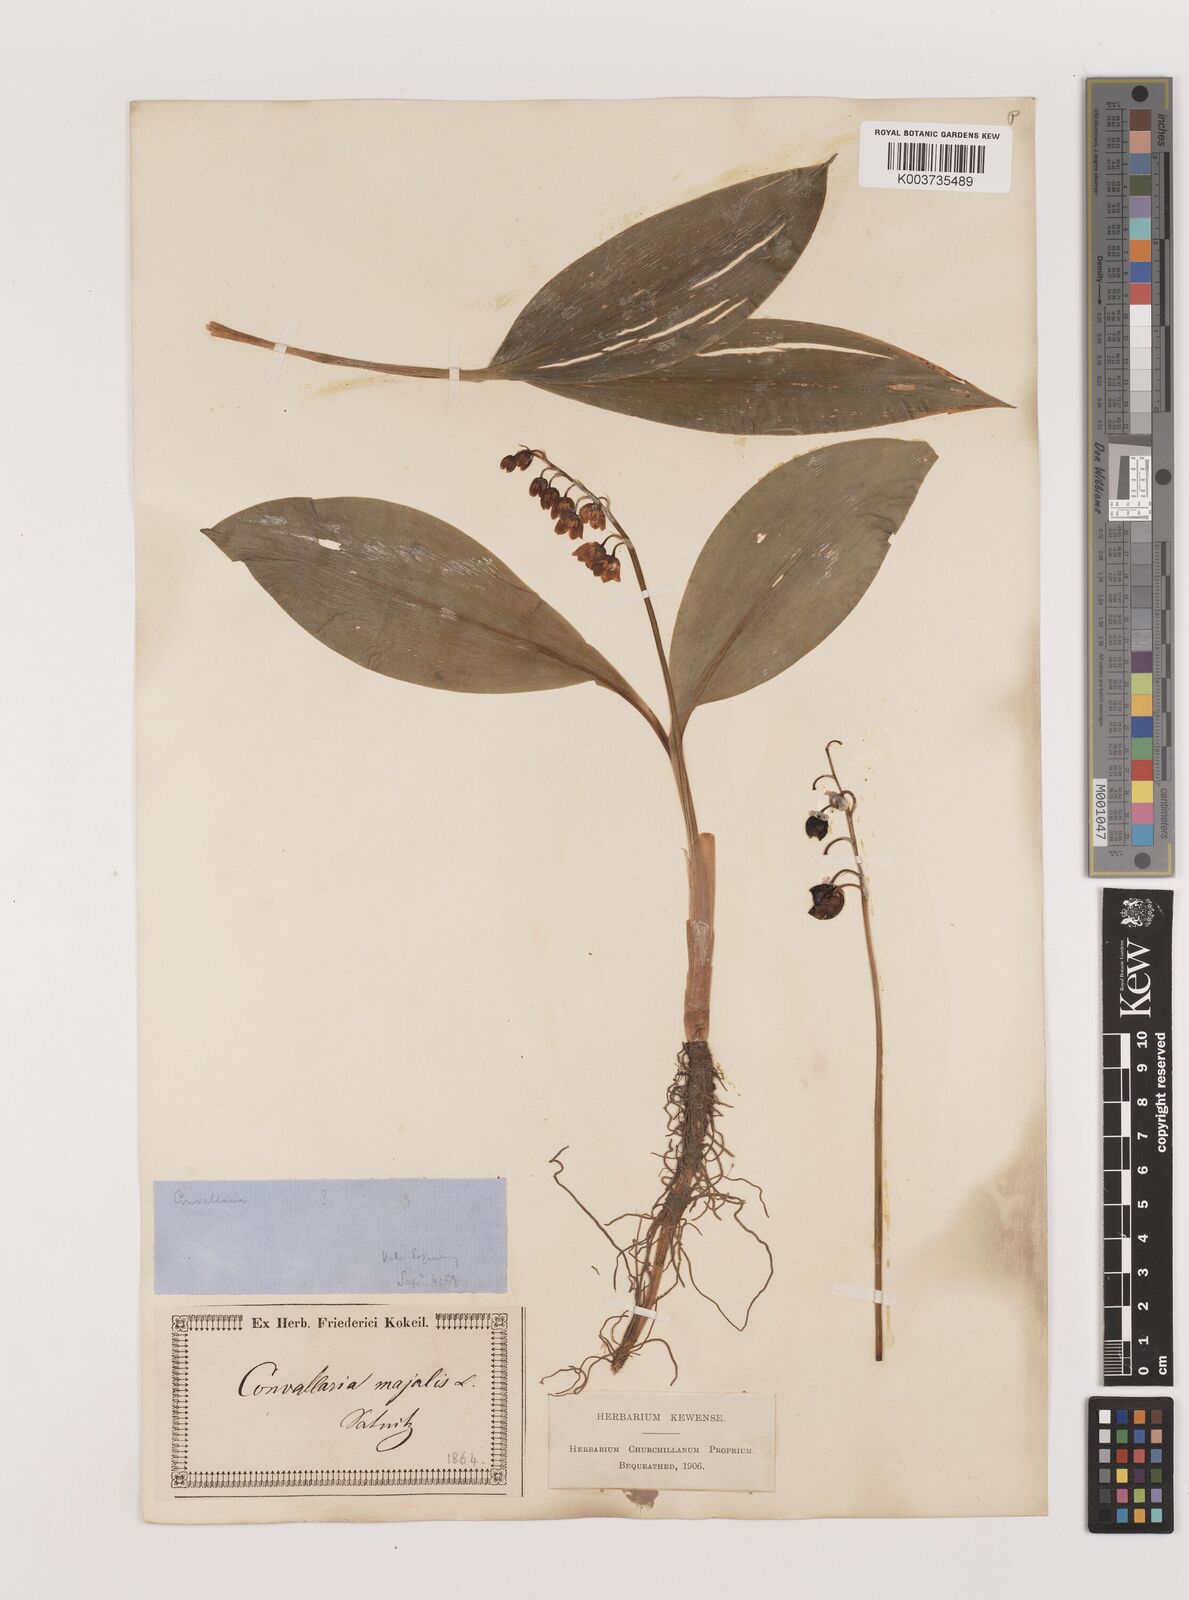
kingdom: Plantae
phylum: Tracheophyta
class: Liliopsida
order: Asparagales
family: Asparagaceae
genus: Convallaria
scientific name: Convallaria majalis
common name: Lily-of-the-valley
